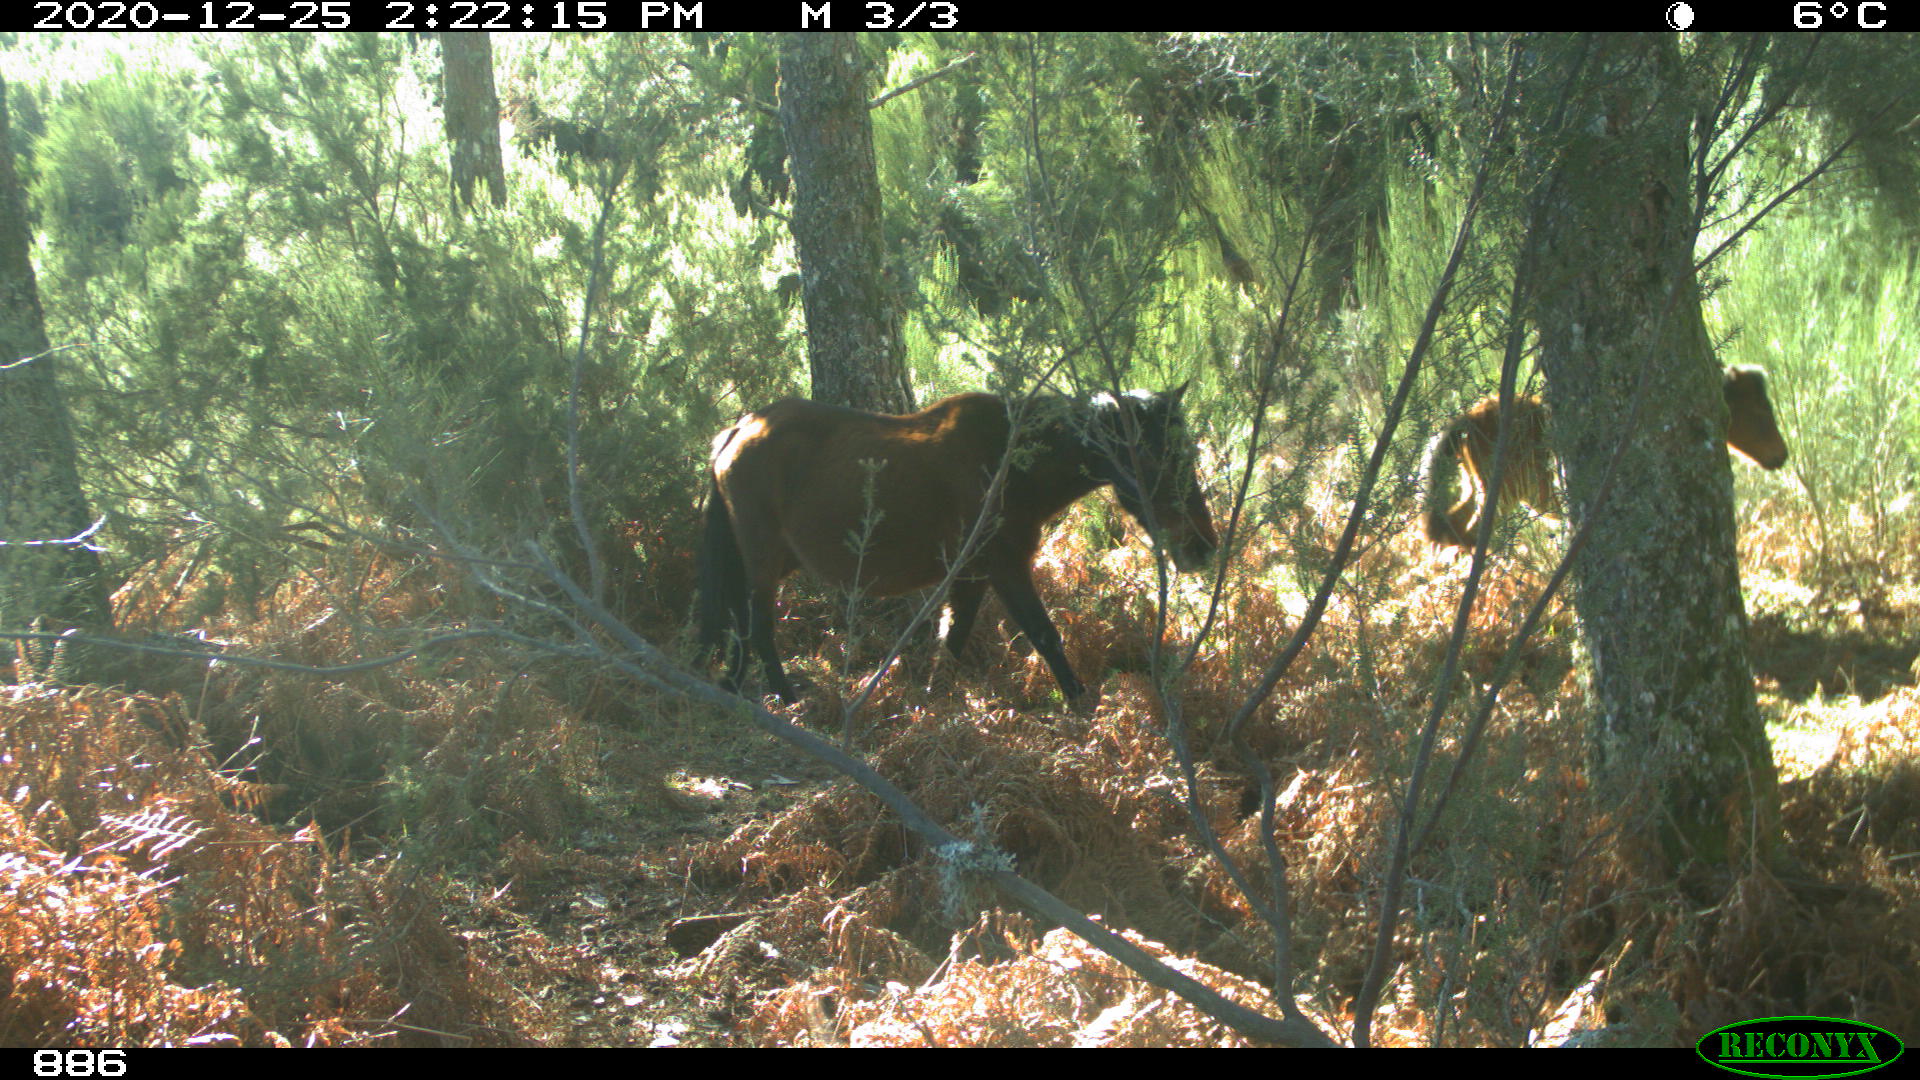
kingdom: Animalia
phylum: Chordata
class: Mammalia
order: Perissodactyla
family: Equidae
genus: Equus
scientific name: Equus caballus
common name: Horse
